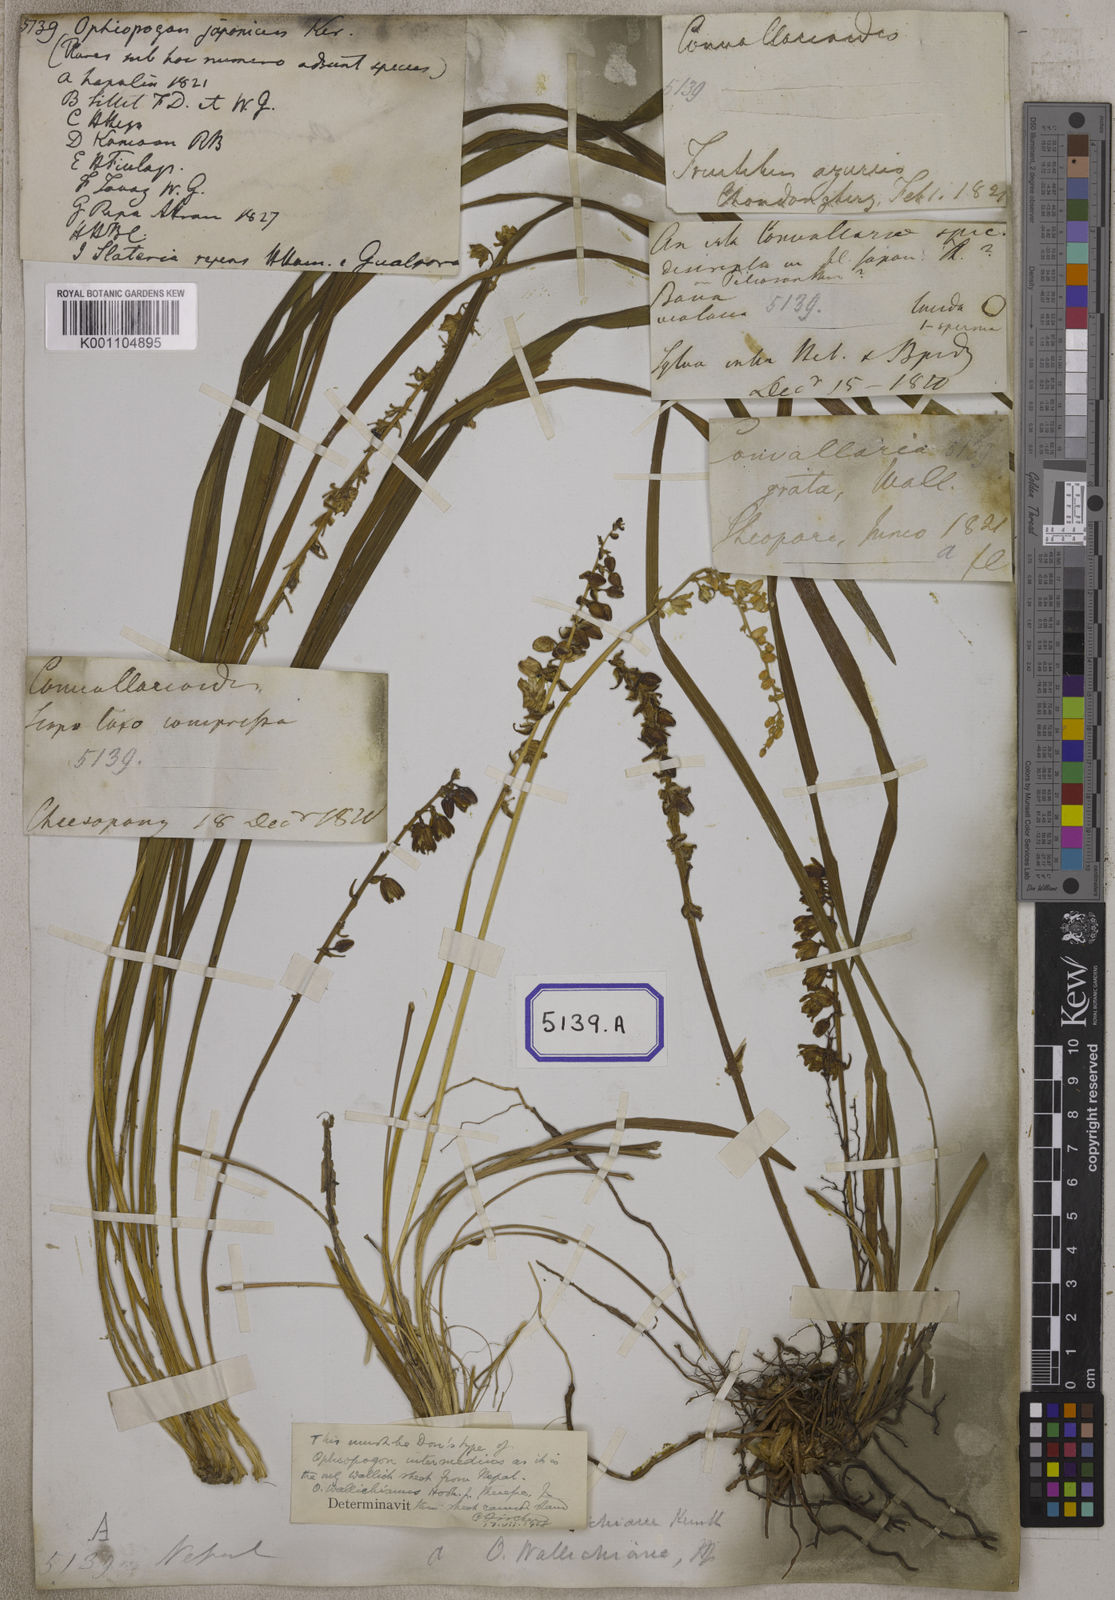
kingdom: Plantae
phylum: Tracheophyta
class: Liliopsida
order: Asparagales
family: Asparagaceae
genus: Ophiopogon
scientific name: Ophiopogon
